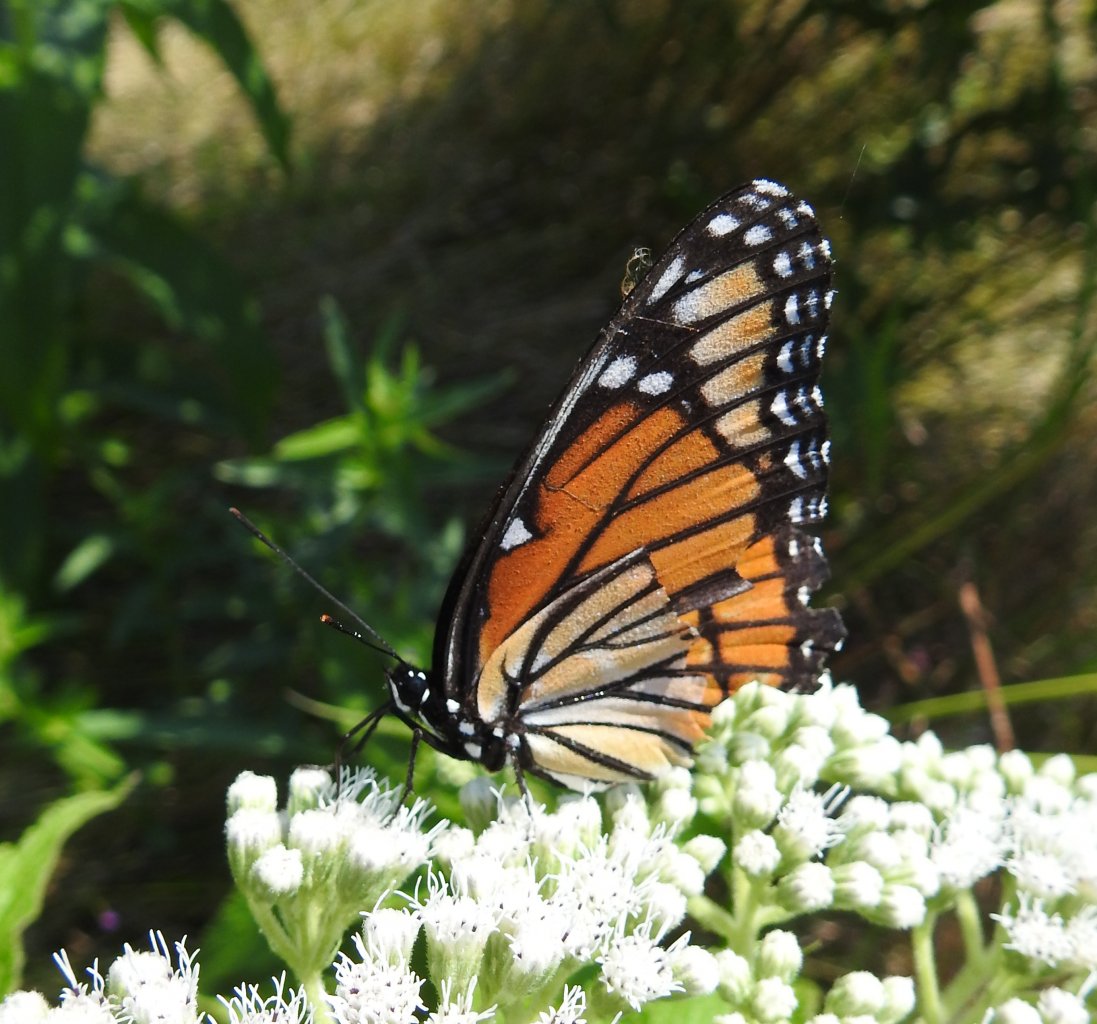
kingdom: Animalia
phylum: Arthropoda
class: Insecta
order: Lepidoptera
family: Nymphalidae
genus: Limenitis
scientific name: Limenitis archippus
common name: Viceroy
